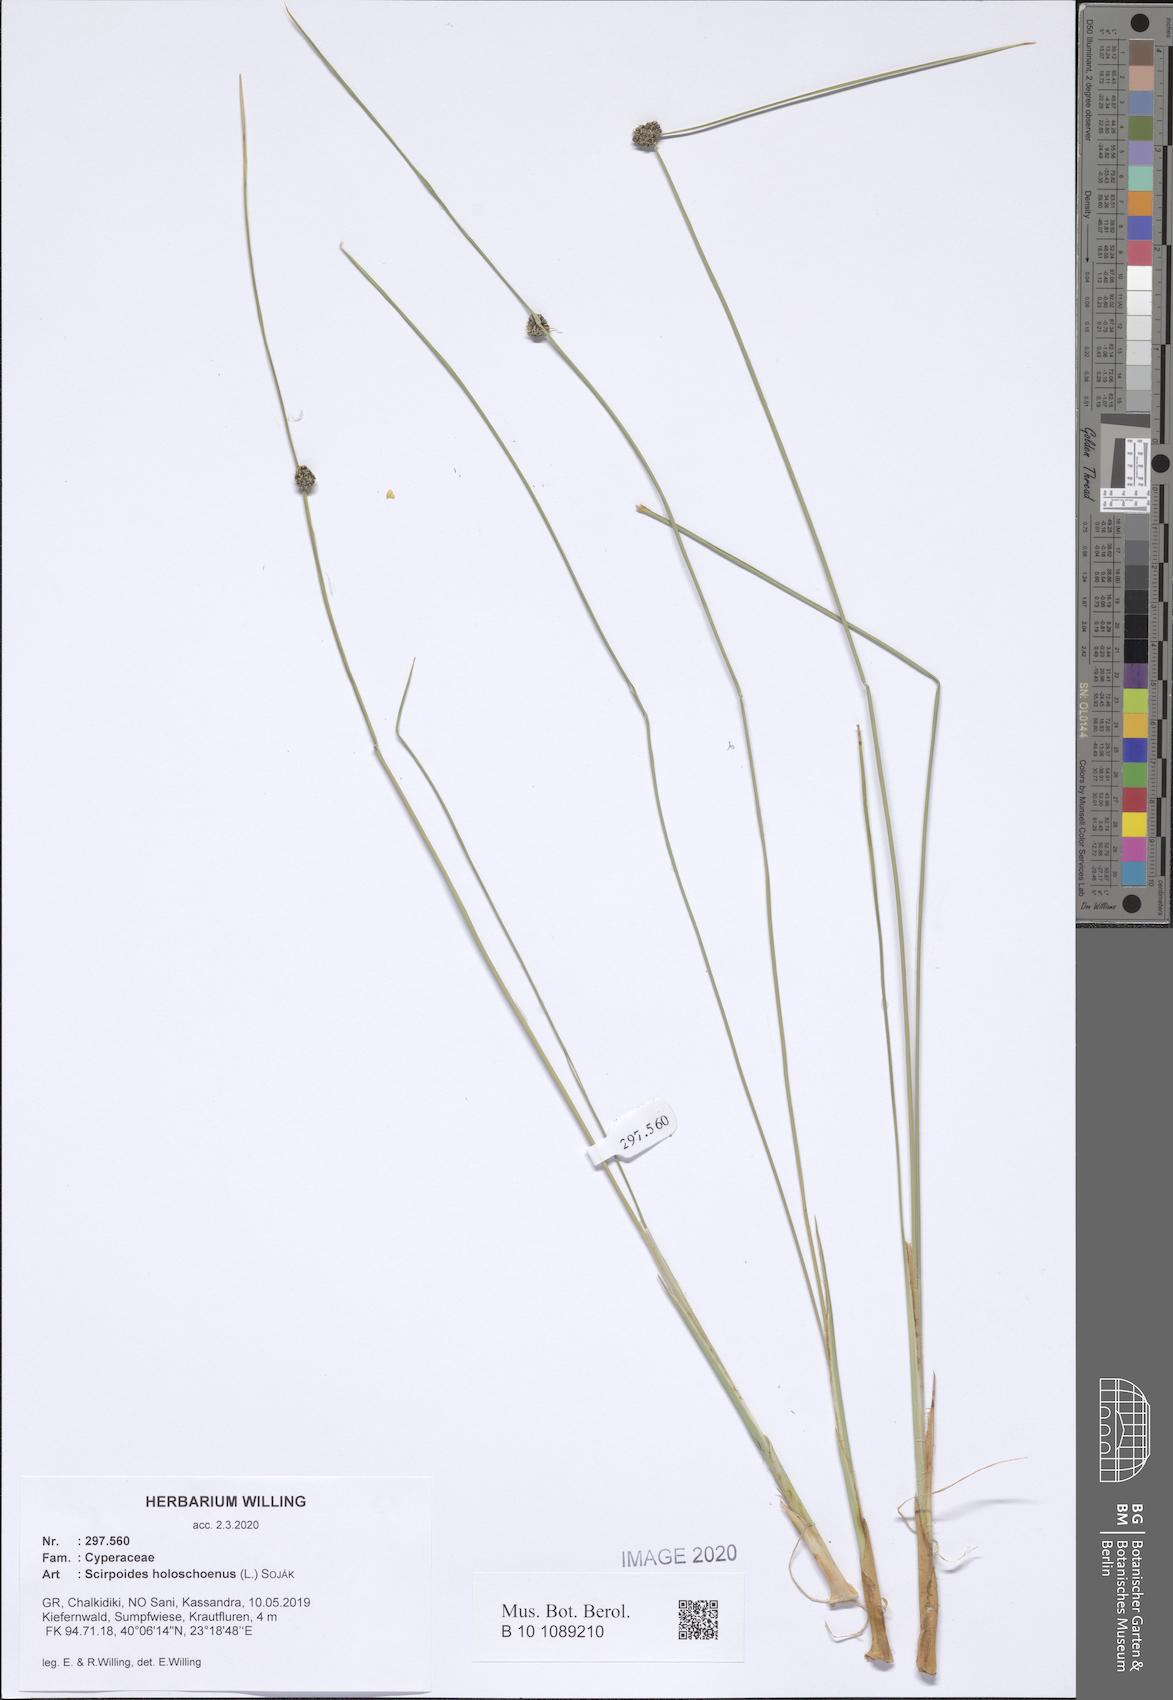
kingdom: Plantae
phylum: Tracheophyta
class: Liliopsida
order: Poales
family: Cyperaceae
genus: Scirpoides
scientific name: Scirpoides holoschoenus
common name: Round-headed club-rush
